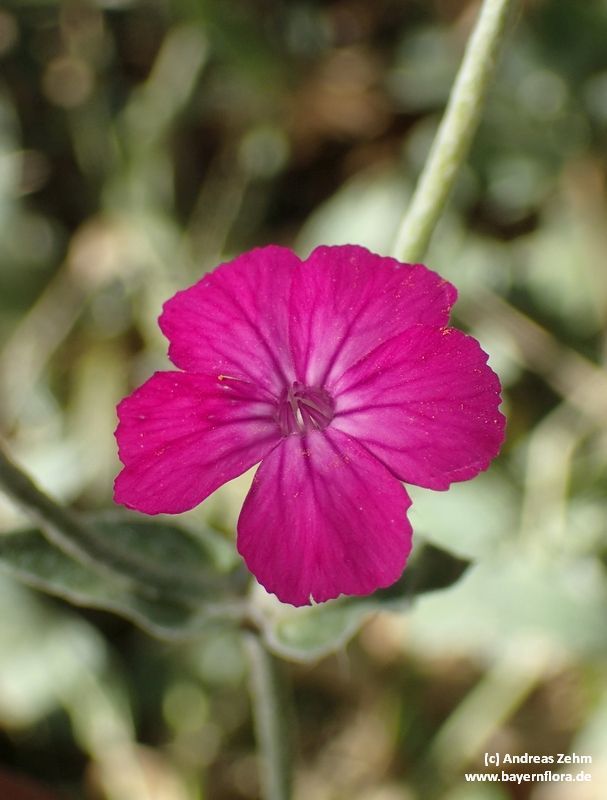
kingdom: Plantae
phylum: Tracheophyta
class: Magnoliopsida
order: Caryophyllales
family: Caryophyllaceae
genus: Silene
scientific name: Silene coronaria
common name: Rose campion
